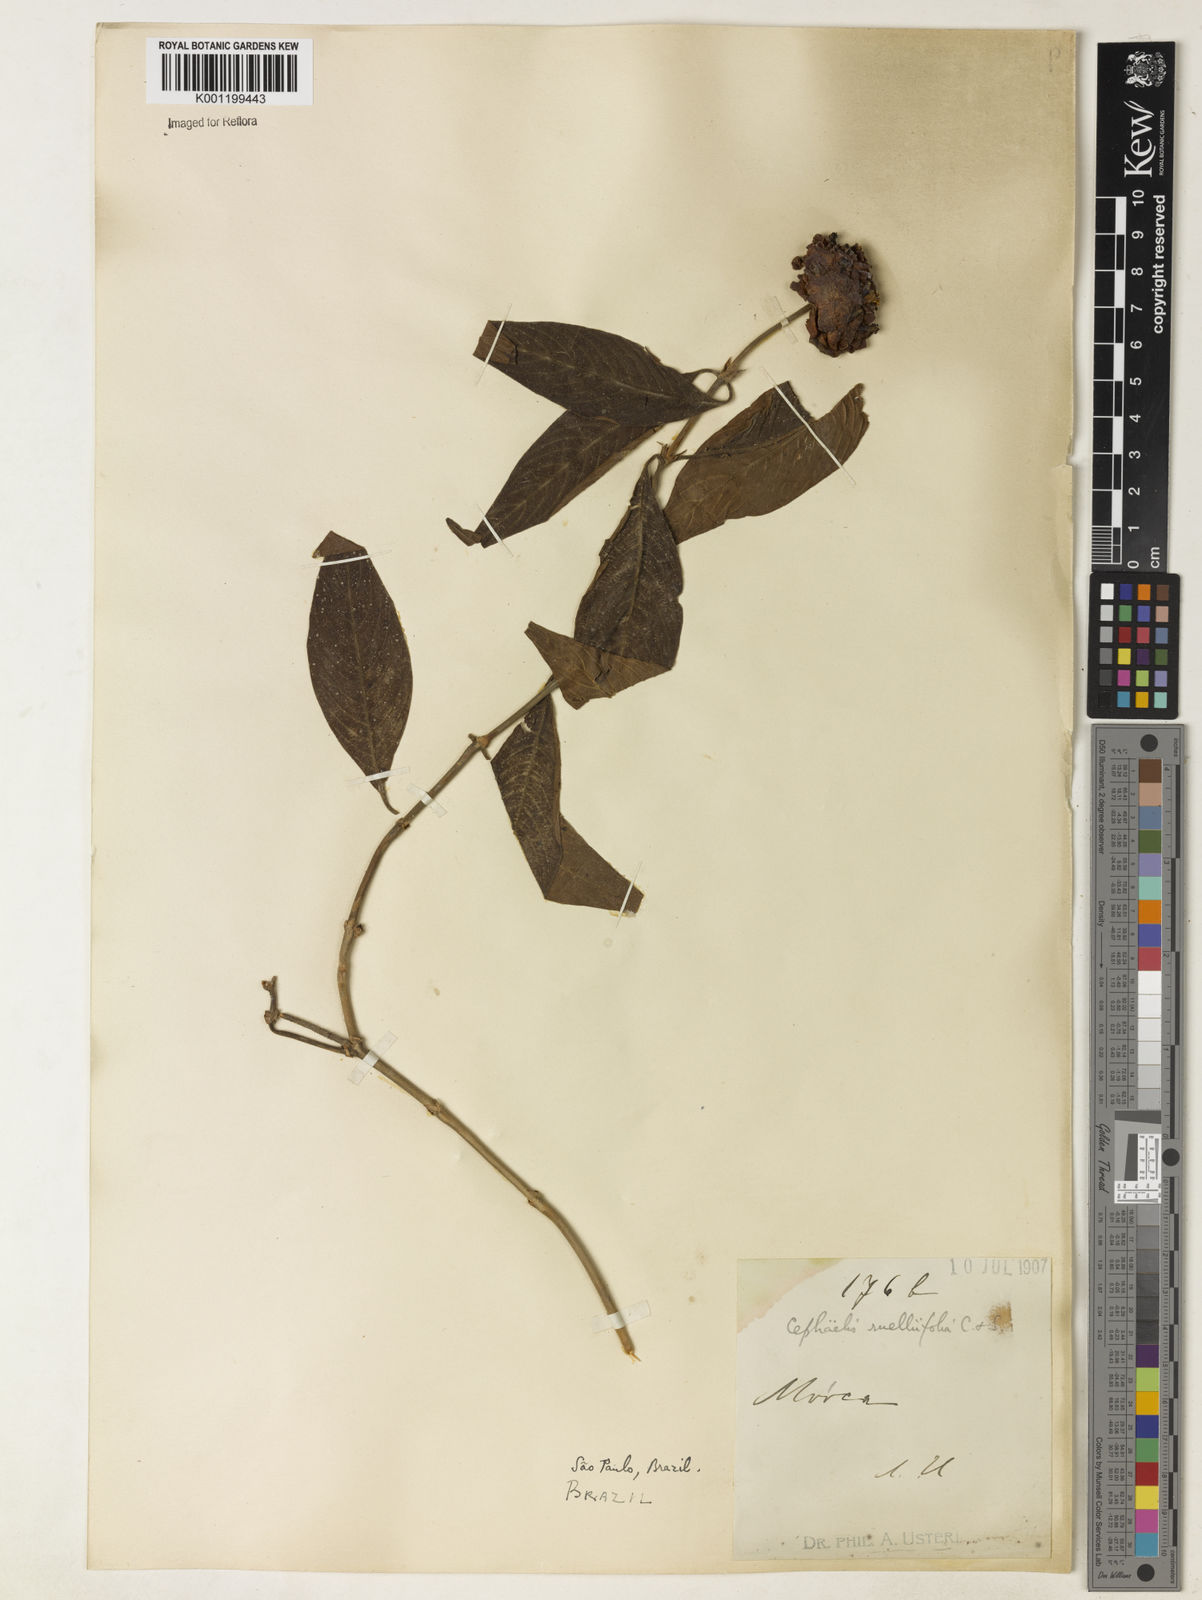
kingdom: Plantae
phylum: Tracheophyta
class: Magnoliopsida
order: Gentianales
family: Rubiaceae
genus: Psychotria
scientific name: Psychotria
